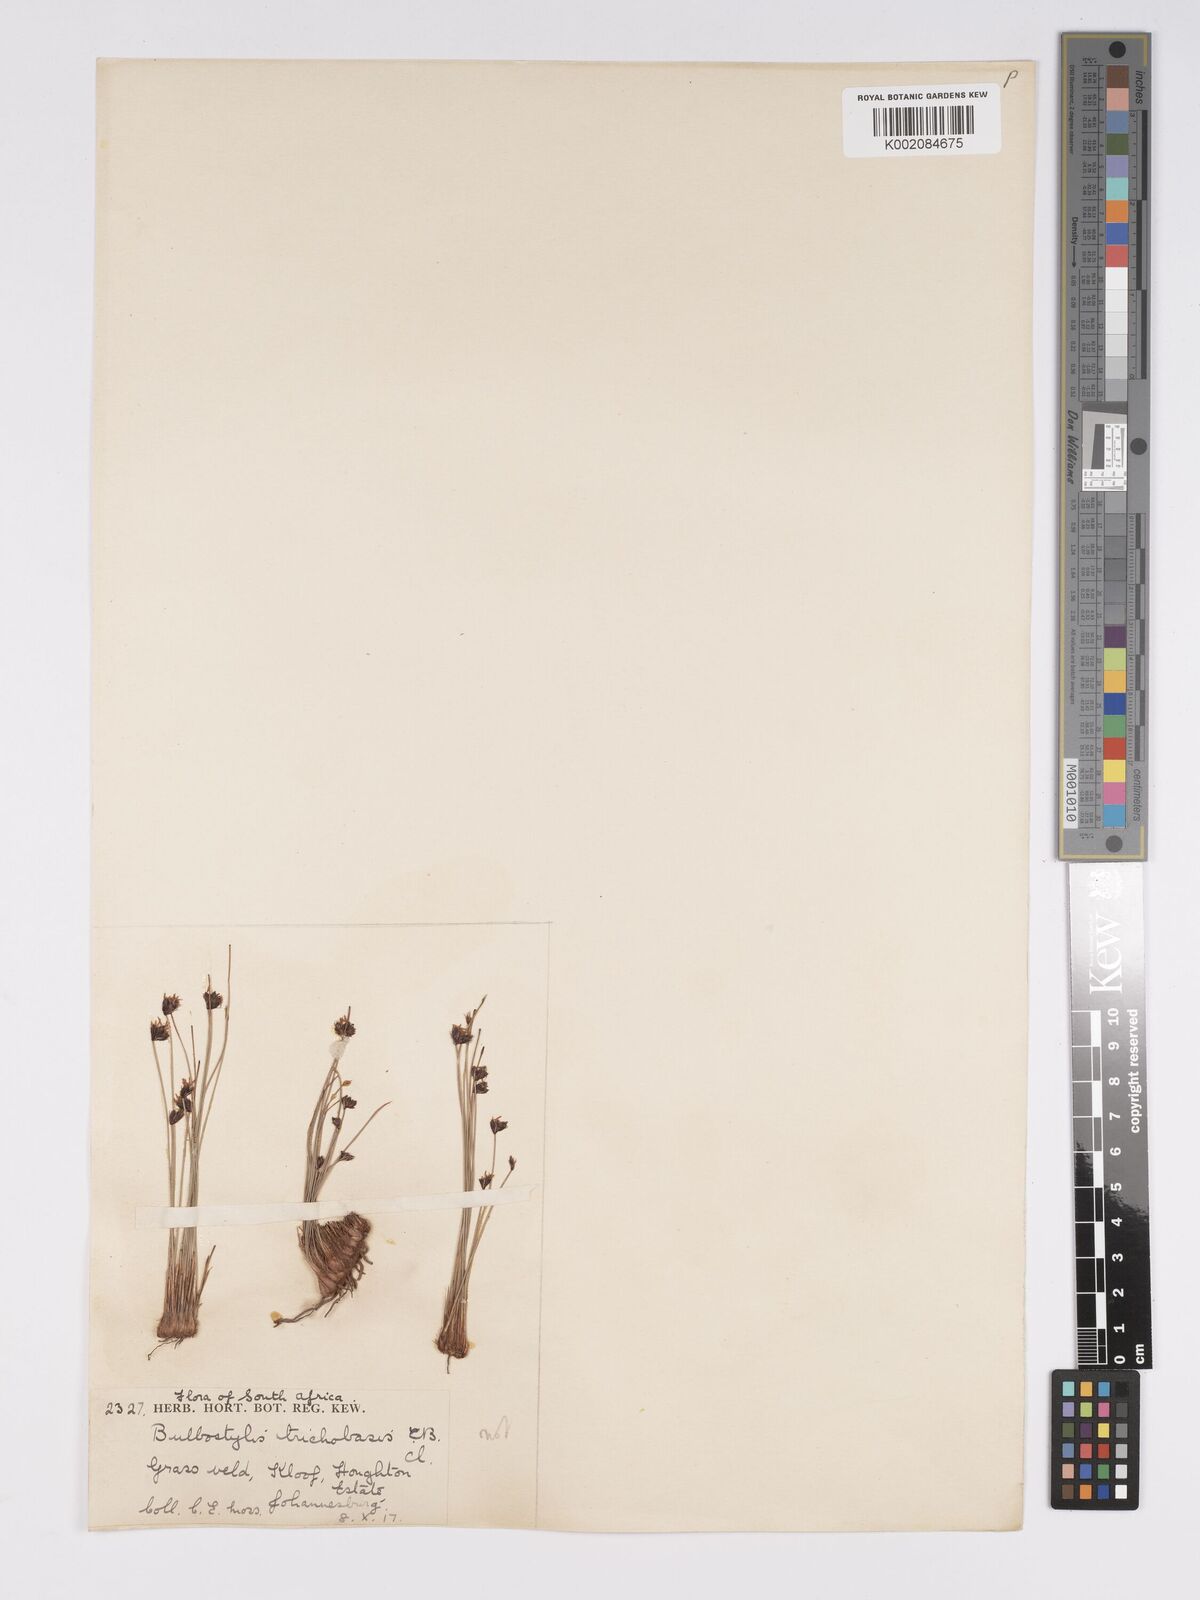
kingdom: Plantae
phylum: Tracheophyta
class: Liliopsida
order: Poales
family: Cyperaceae
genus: Bulbostylis
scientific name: Bulbostylis oritrephes
